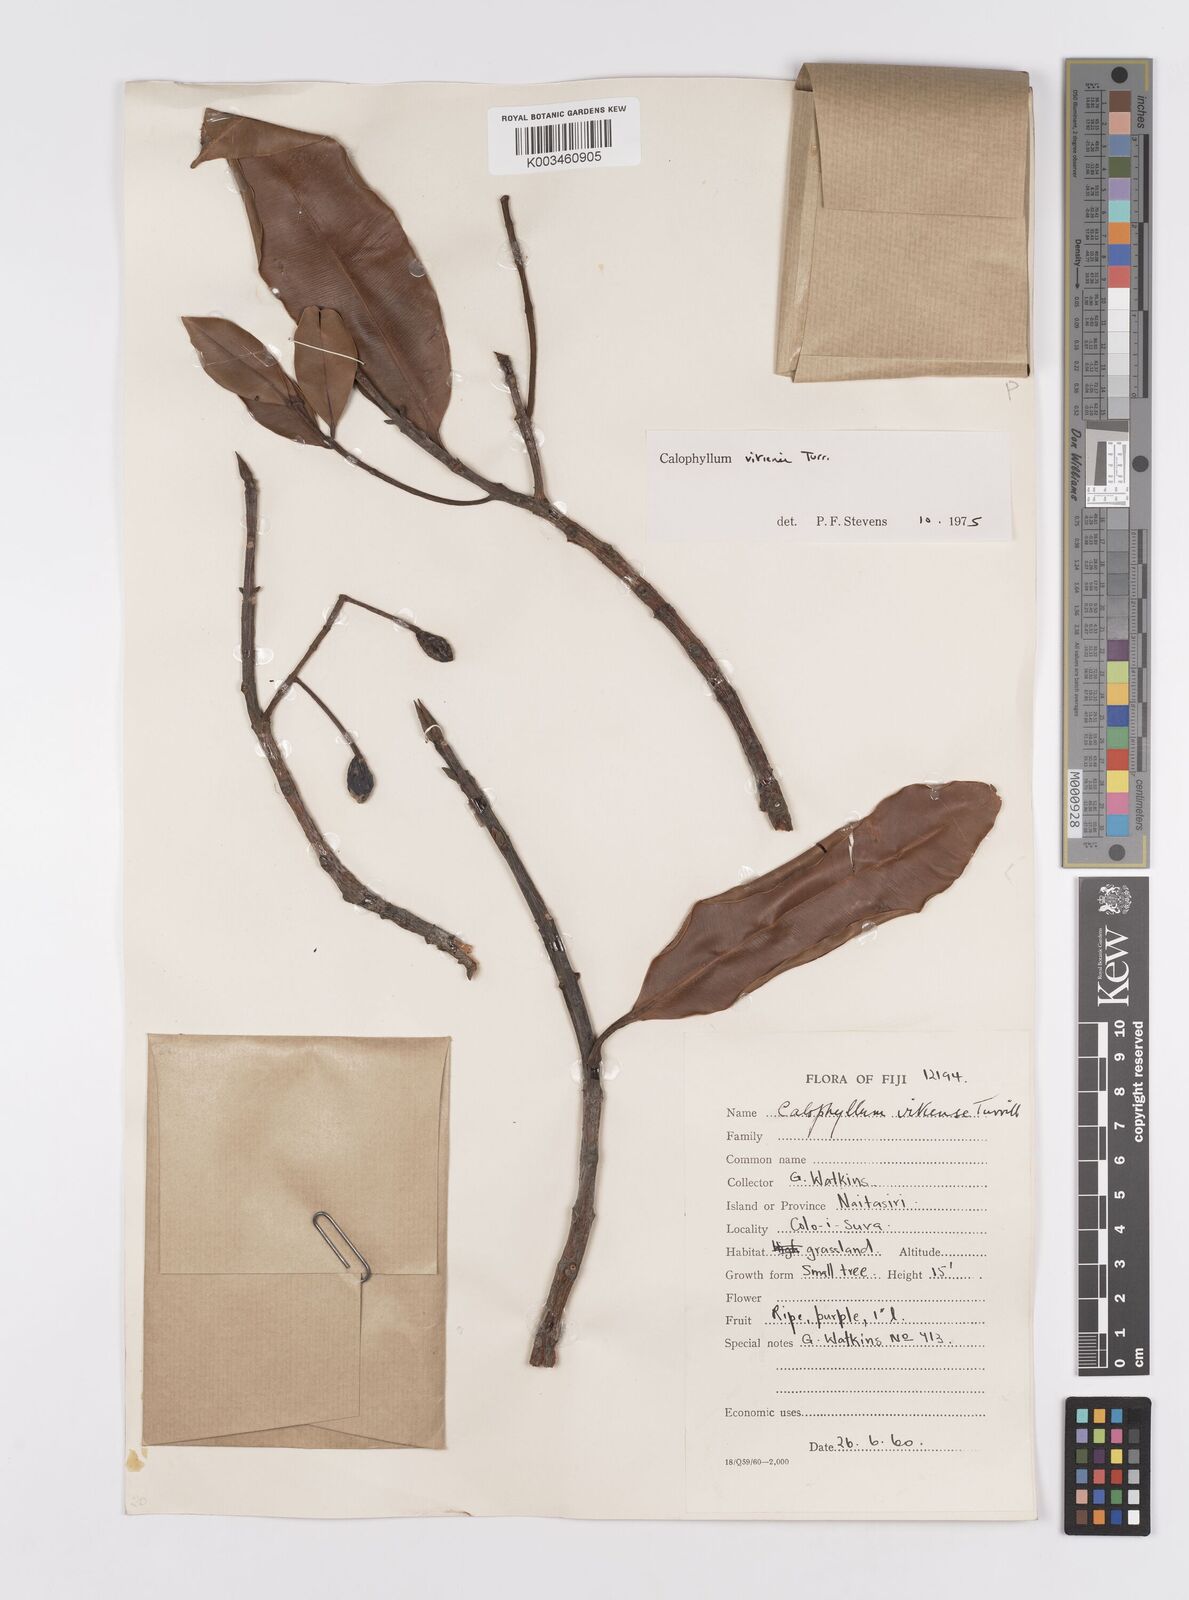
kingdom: Plantae
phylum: Tracheophyta
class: Magnoliopsida
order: Malpighiales
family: Calophyllaceae
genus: Calophyllum
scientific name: Calophyllum vitiense
